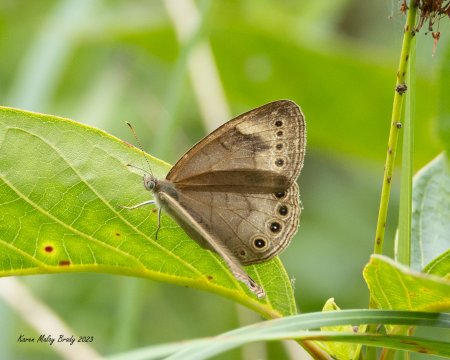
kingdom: Animalia
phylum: Arthropoda
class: Insecta
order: Lepidoptera
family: Nymphalidae
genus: Lethe
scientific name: Lethe eurydice
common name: Appalachian Eyed Brown
